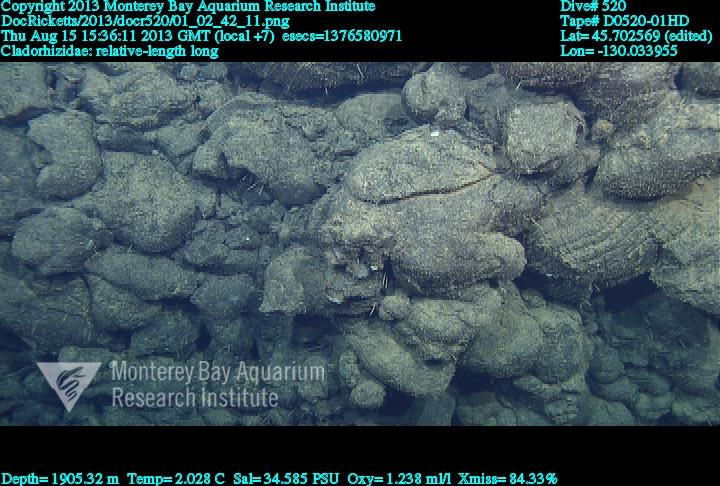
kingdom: Animalia
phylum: Porifera
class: Demospongiae
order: Poecilosclerida
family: Cladorhizidae
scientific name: Cladorhizidae
